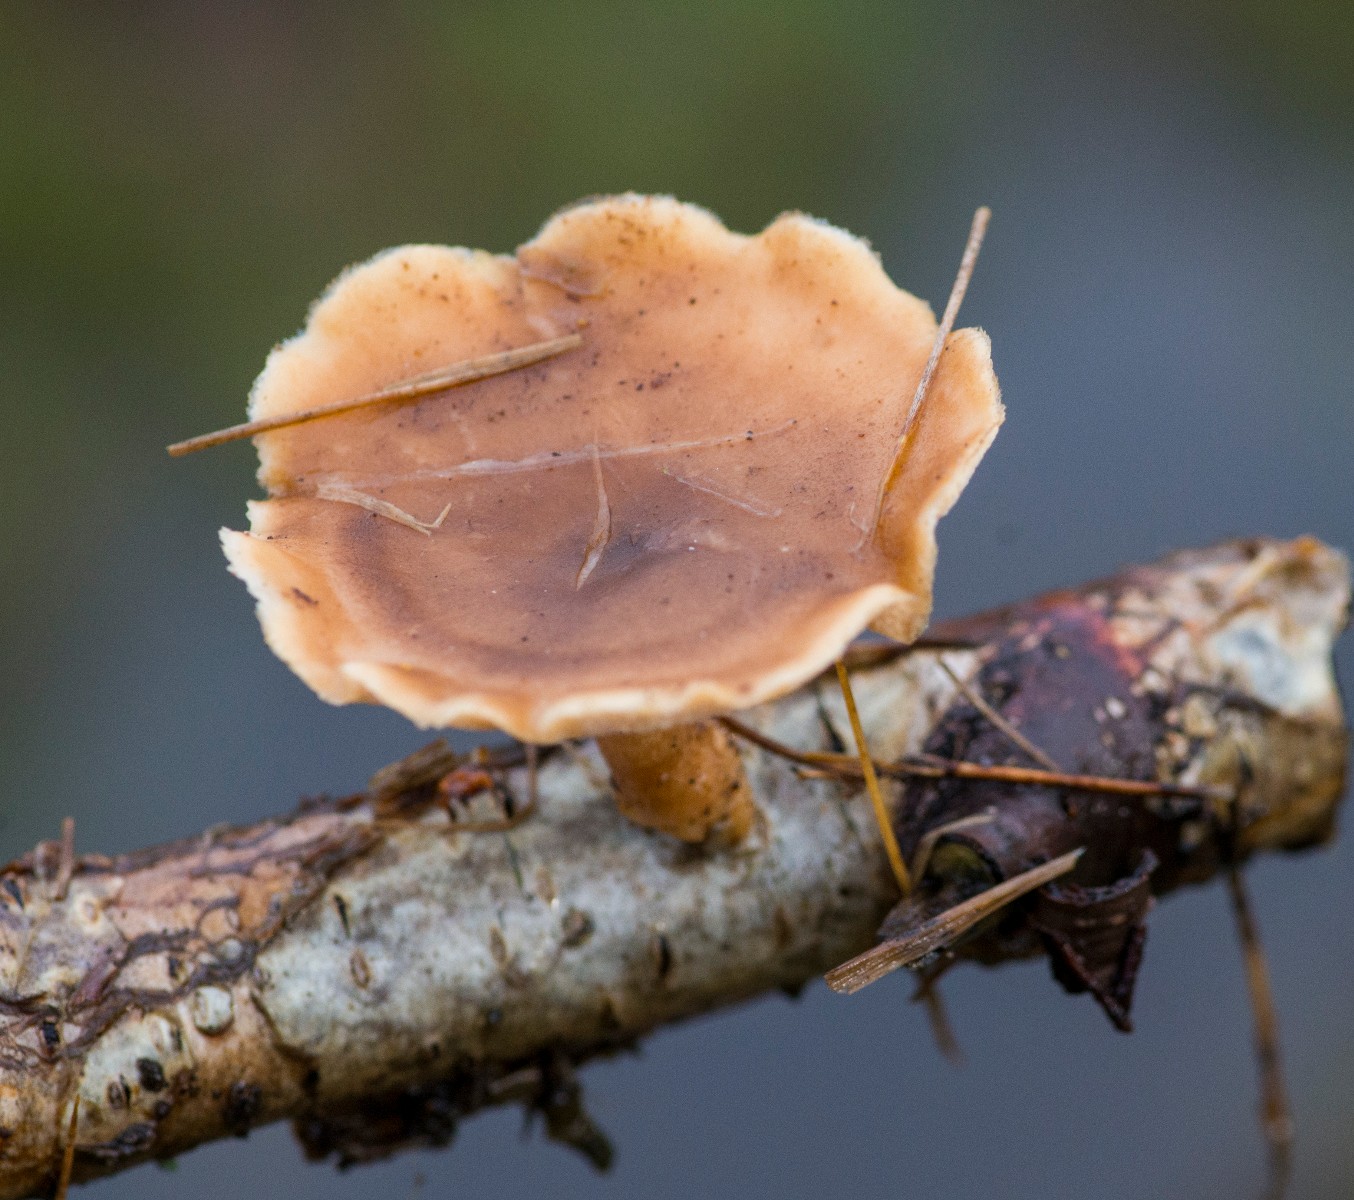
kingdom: Fungi
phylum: Basidiomycota
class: Agaricomycetes
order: Polyporales
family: Polyporaceae
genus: Lentinus
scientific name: Lentinus brumalis
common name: vinter-stilkporesvamp
